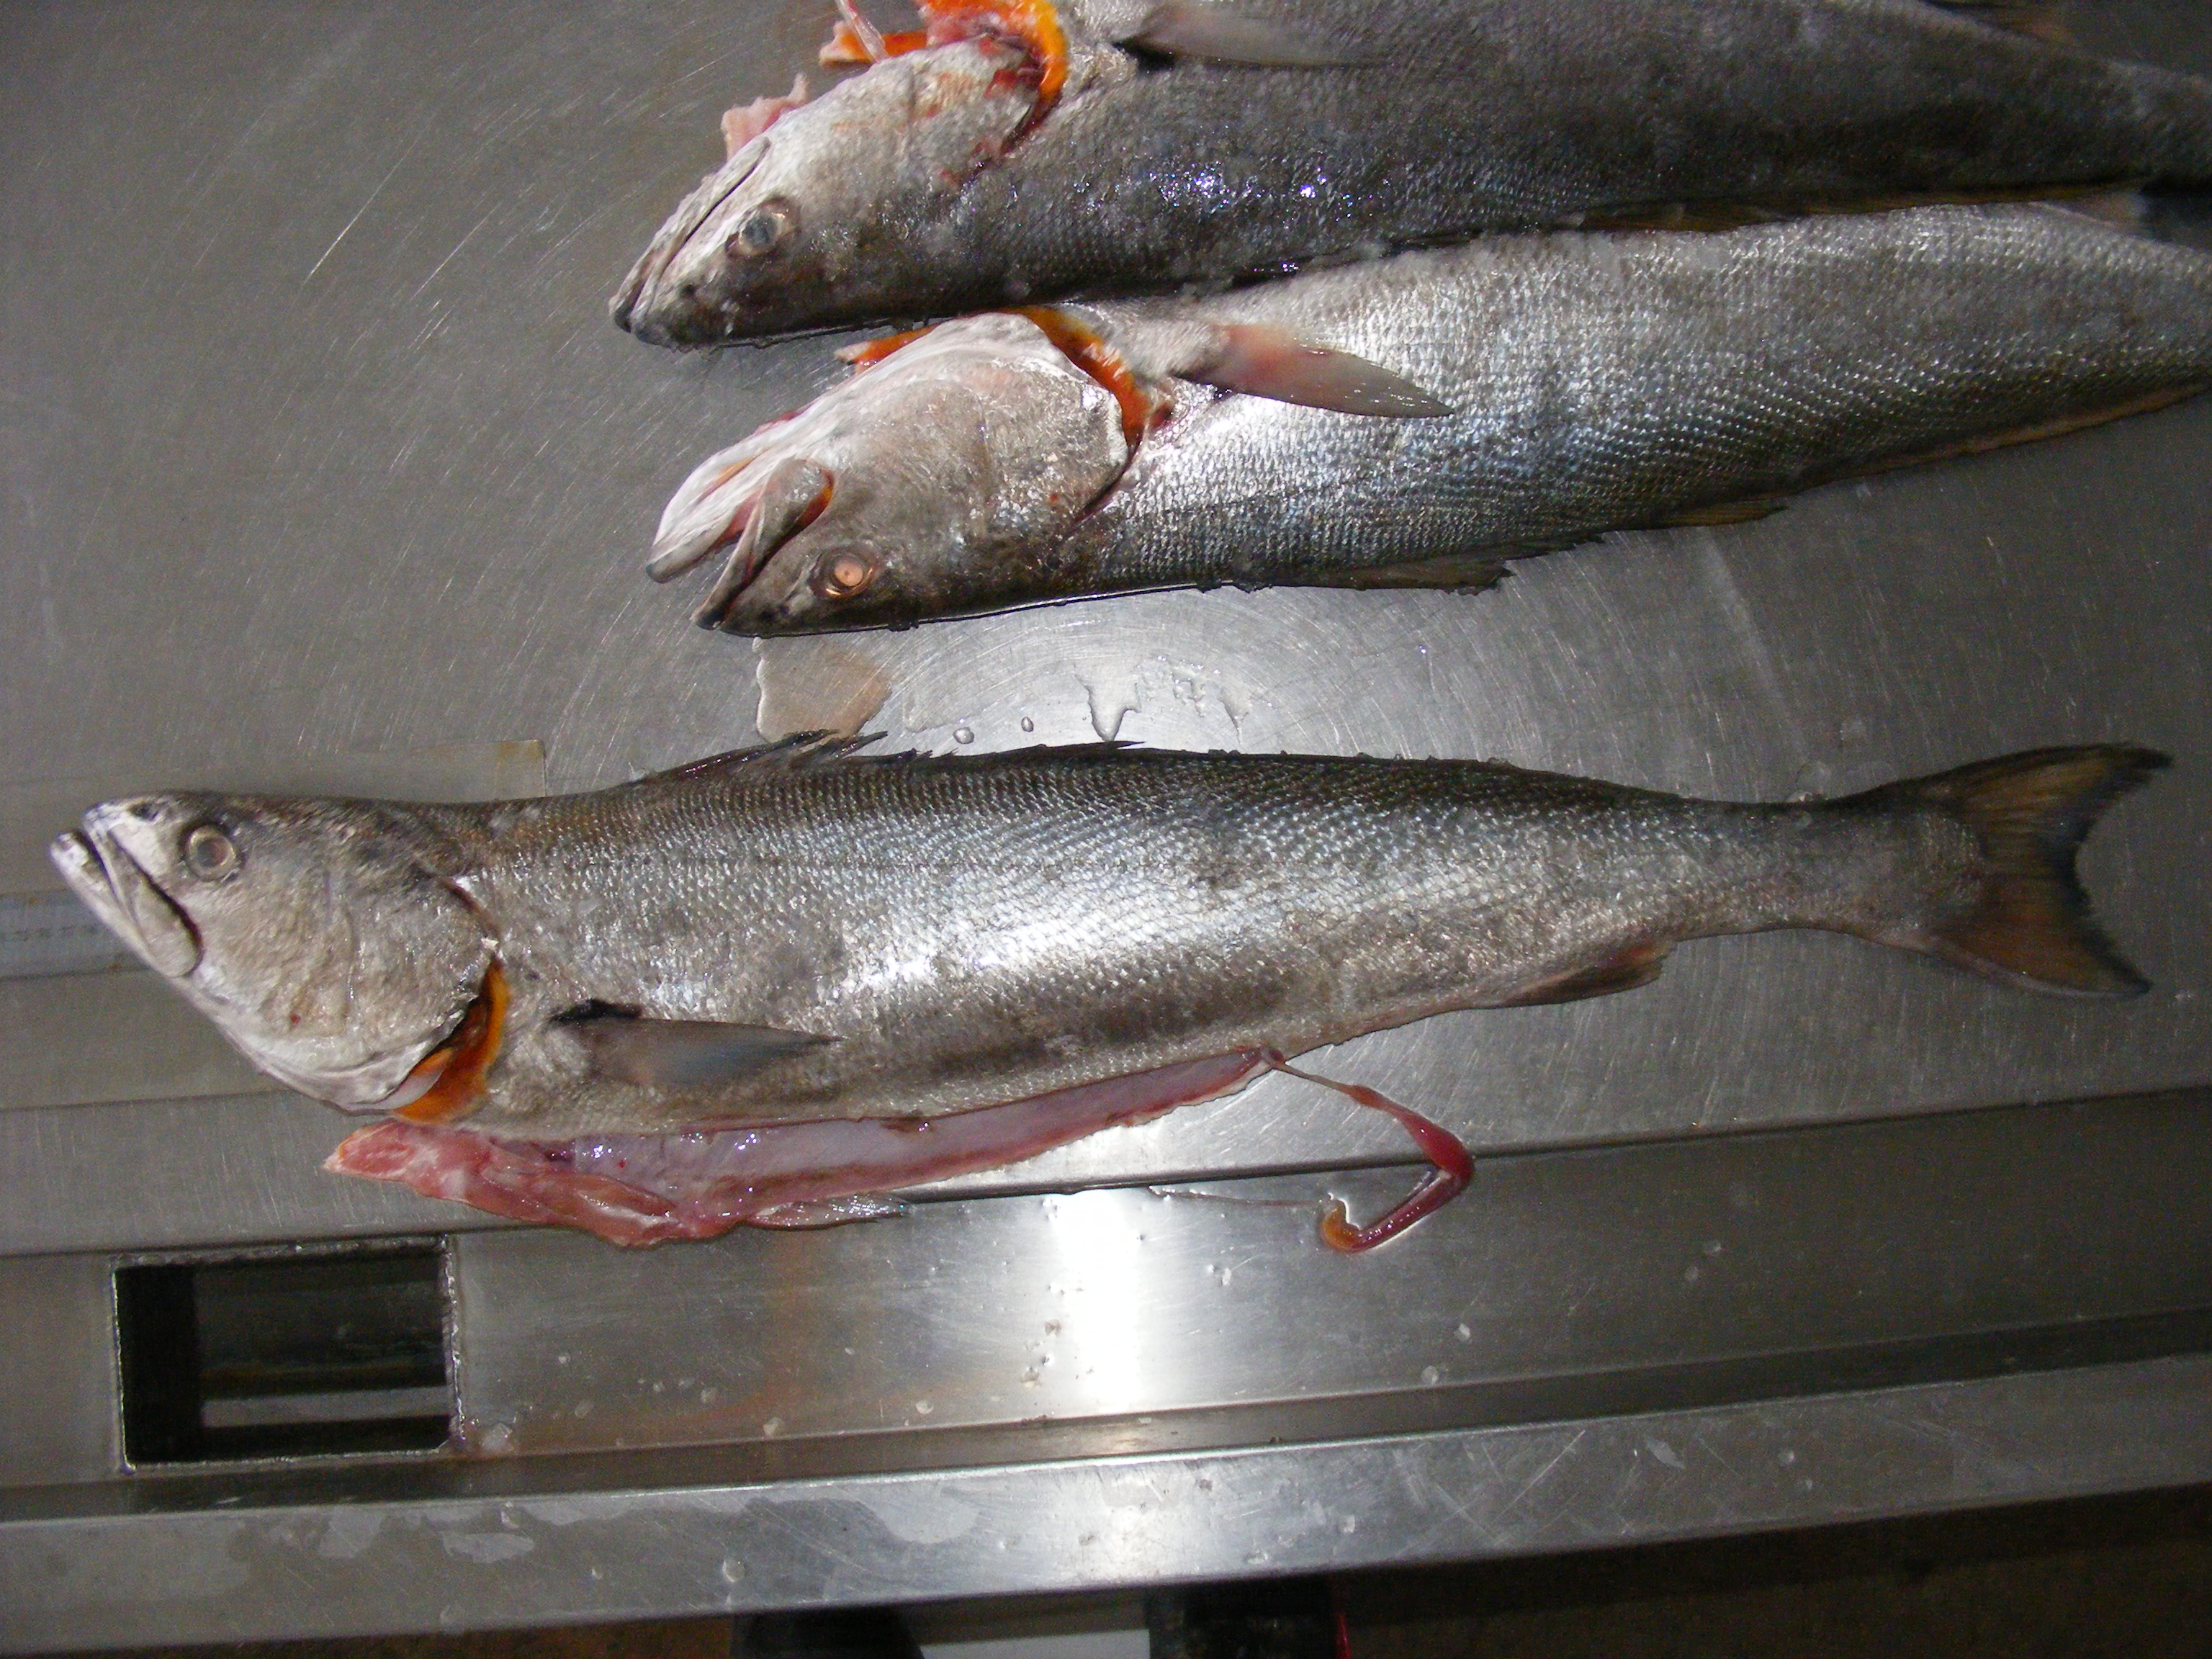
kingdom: Animalia
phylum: Chordata
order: Perciformes
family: Sciaenidae
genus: Atractoscion
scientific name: Atractoscion aequidens
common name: Geelbeck croaker
